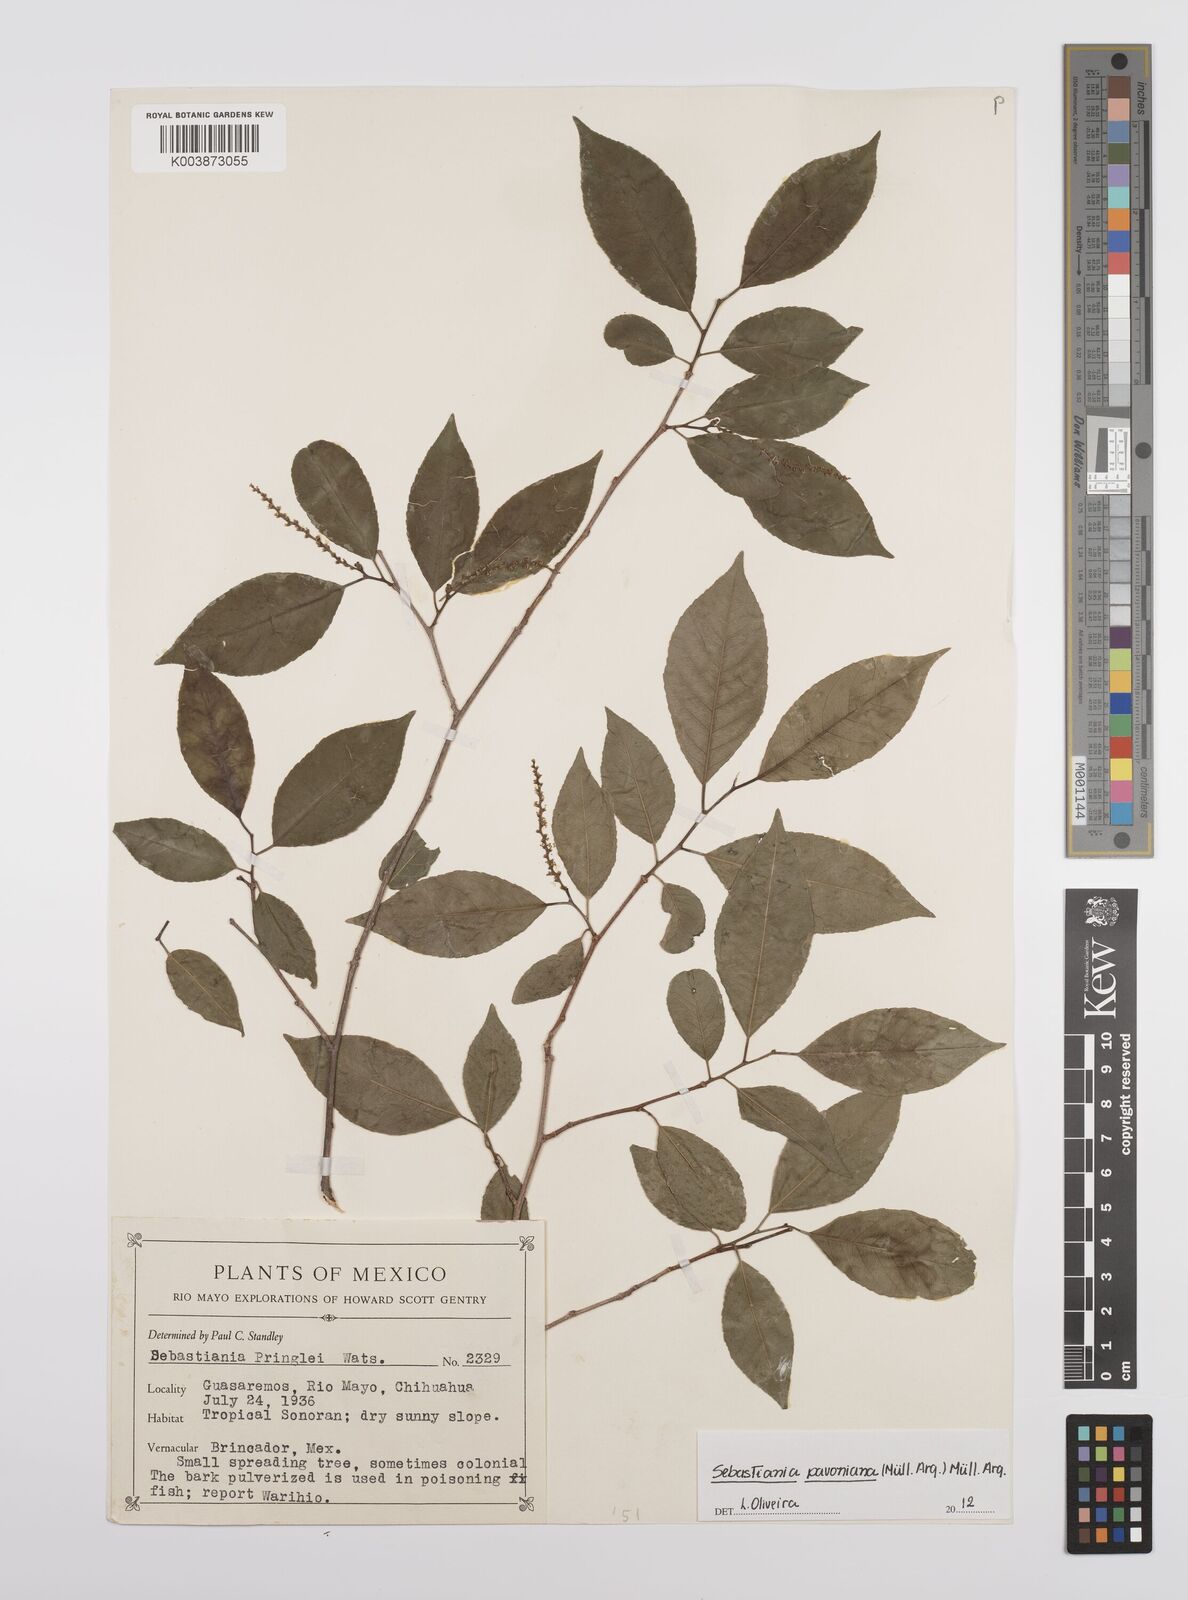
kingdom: Plantae
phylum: Tracheophyta
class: Magnoliopsida
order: Malpighiales
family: Euphorbiaceae
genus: Sebastiania
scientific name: Sebastiania pavoniana
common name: Mexican jumping-beans
